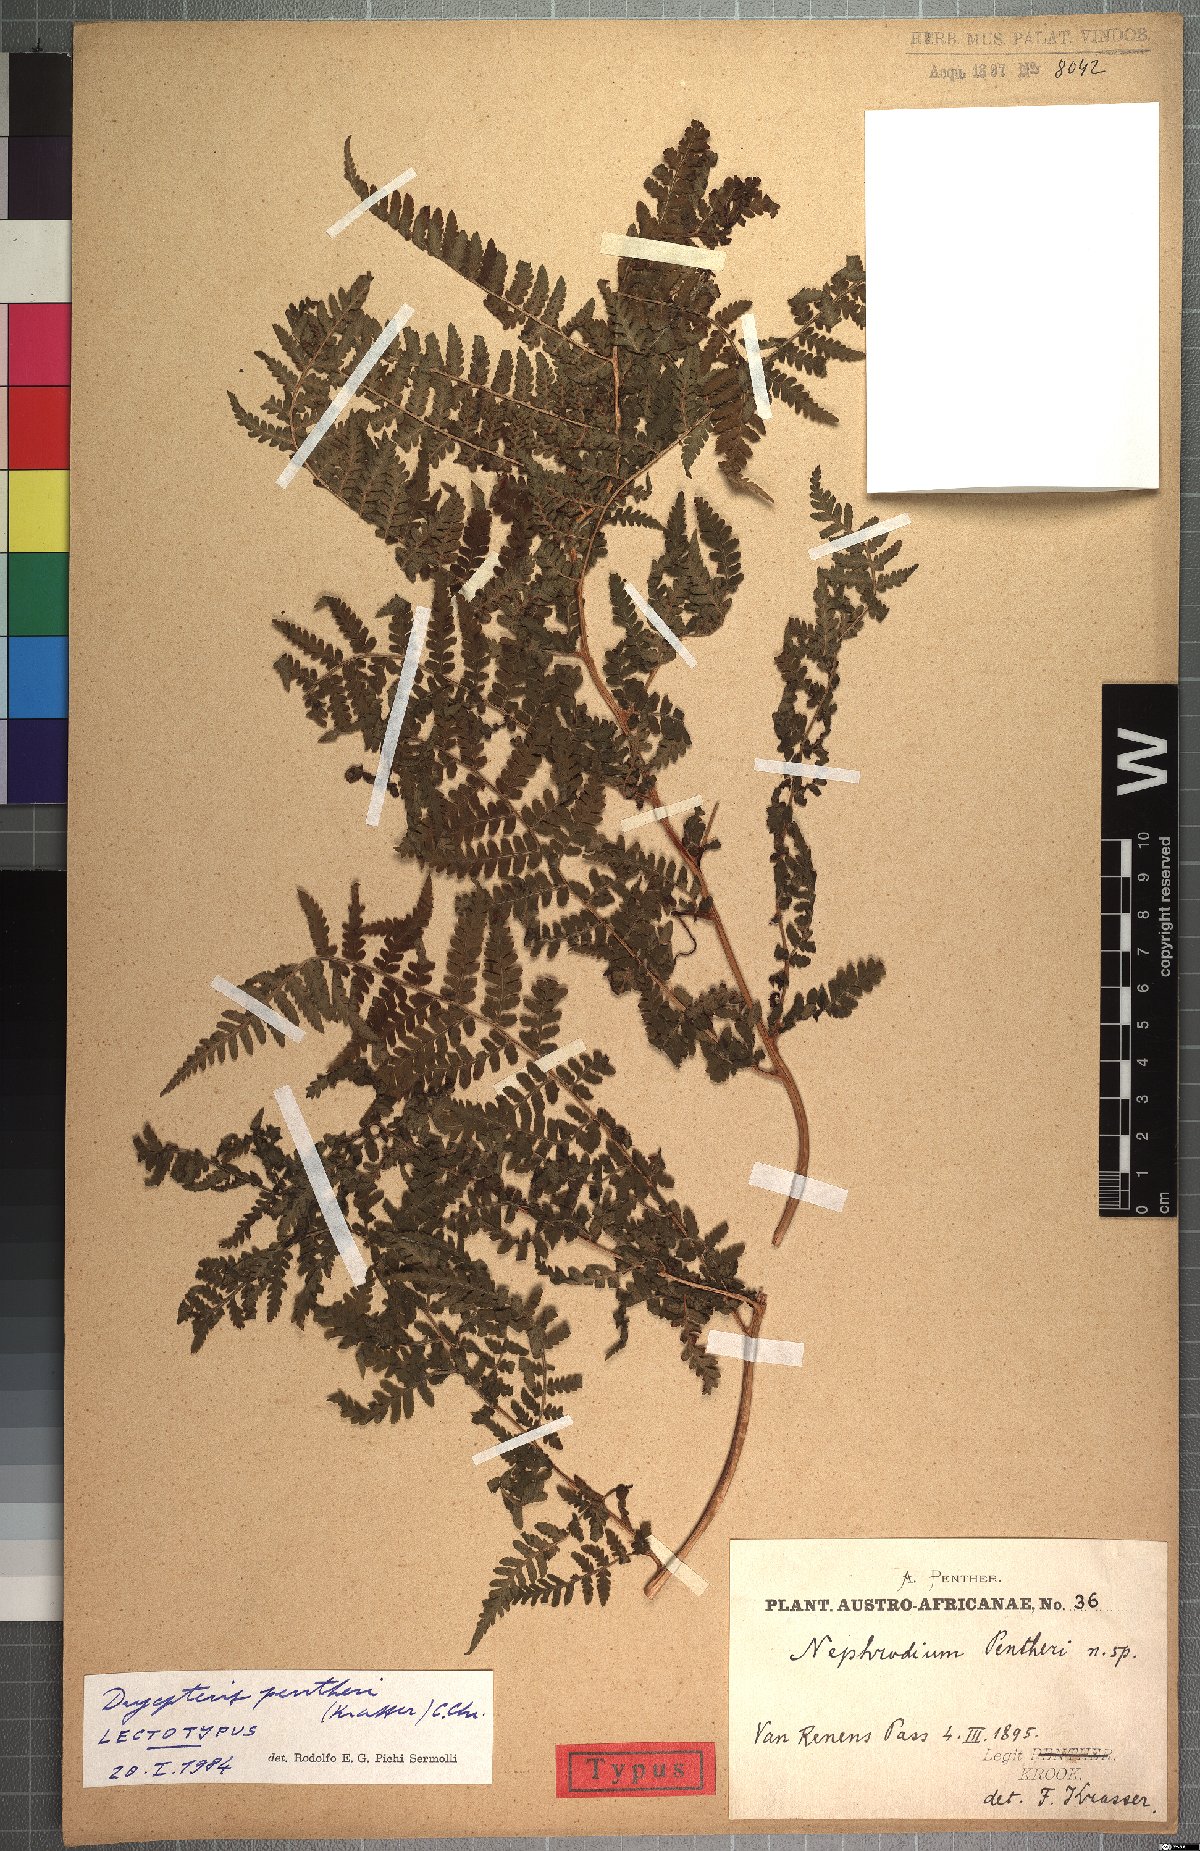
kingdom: Plantae
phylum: Tracheophyta
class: Polypodiopsida
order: Polypodiales
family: Dryopteridaceae
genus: Dryopteris
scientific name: Dryopteris pentheri
